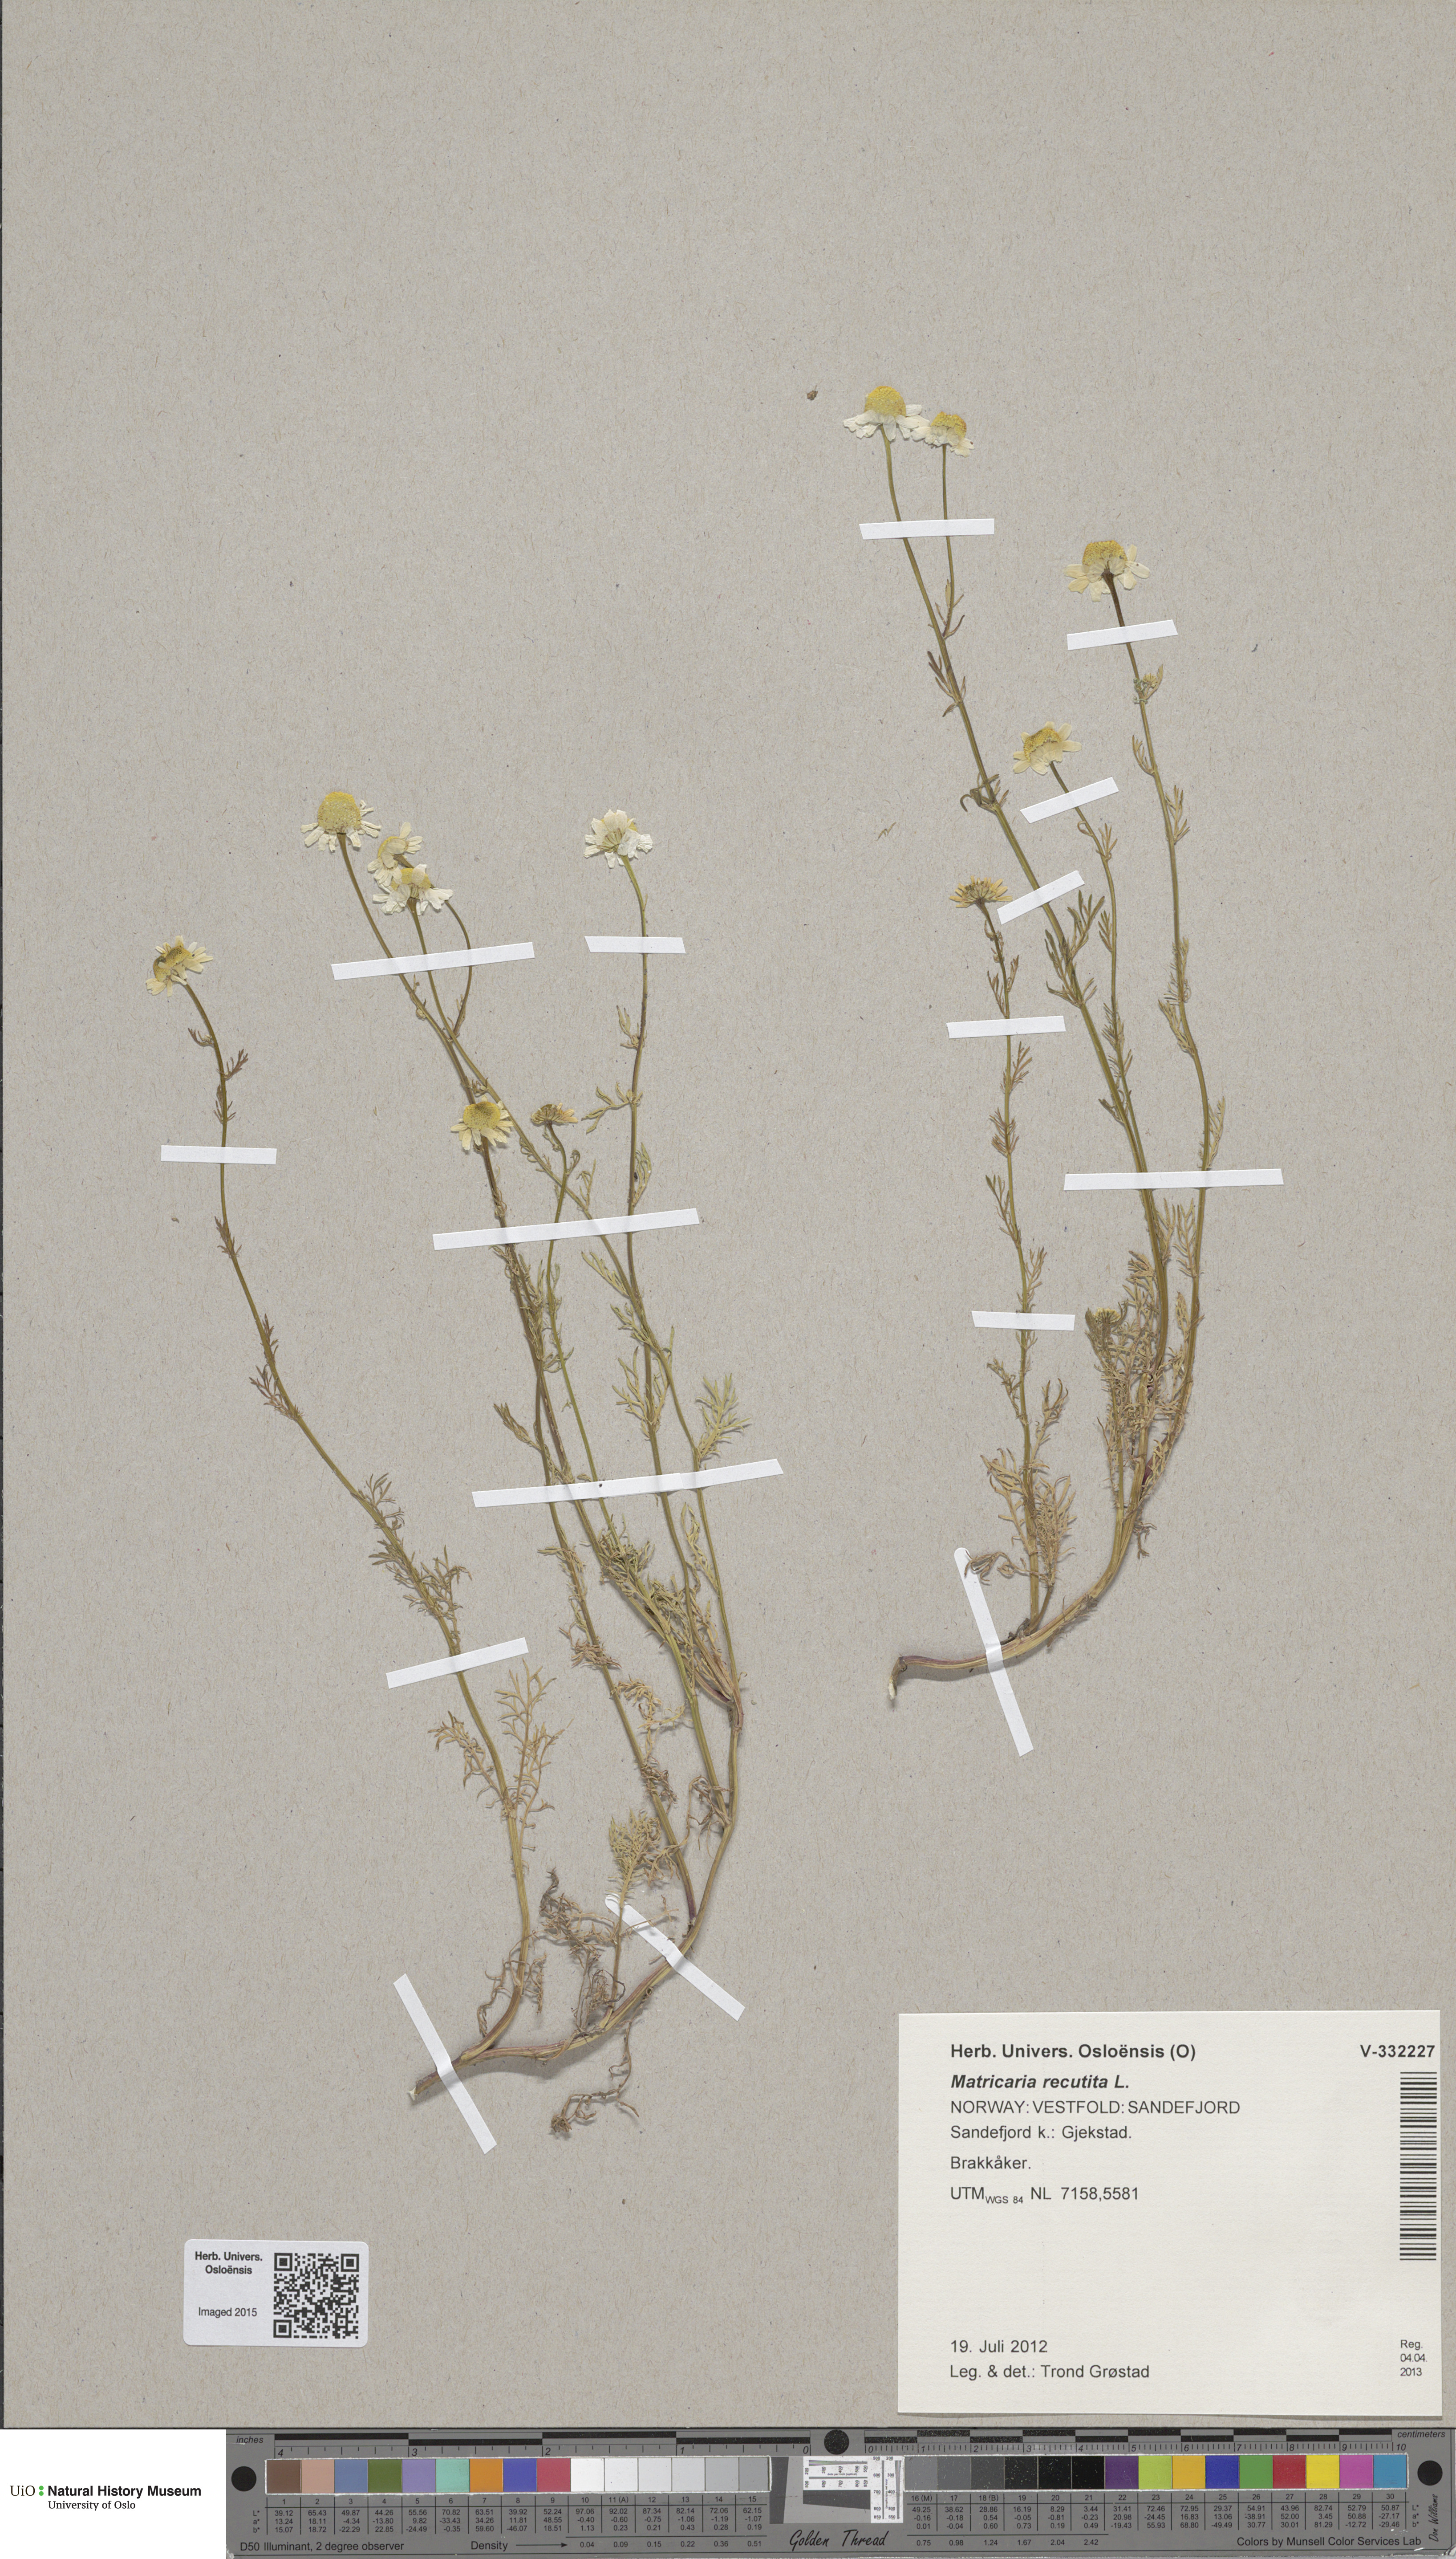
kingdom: Plantae
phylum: Tracheophyta
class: Magnoliopsida
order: Asterales
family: Asteraceae
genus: Matricaria
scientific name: Matricaria chamomilla
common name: Scented mayweed
